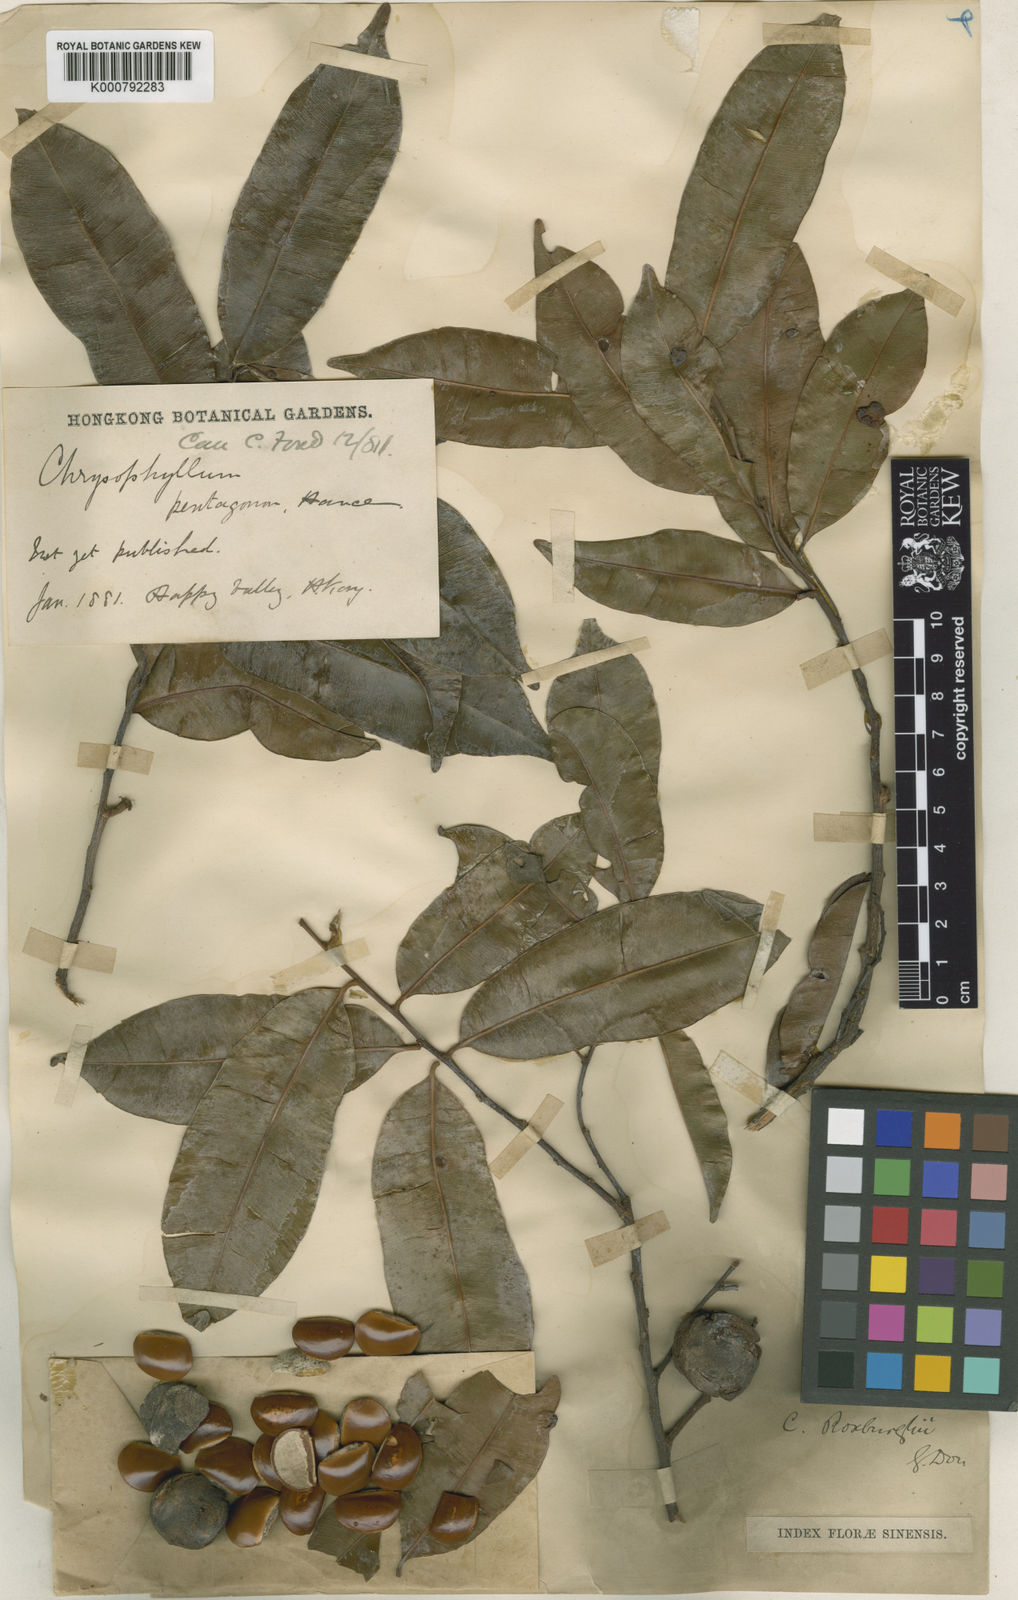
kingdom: Plantae
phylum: Tracheophyta
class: Magnoliopsida
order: Ericales
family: Sapotaceae
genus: Donella
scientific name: Donella lanceolata
